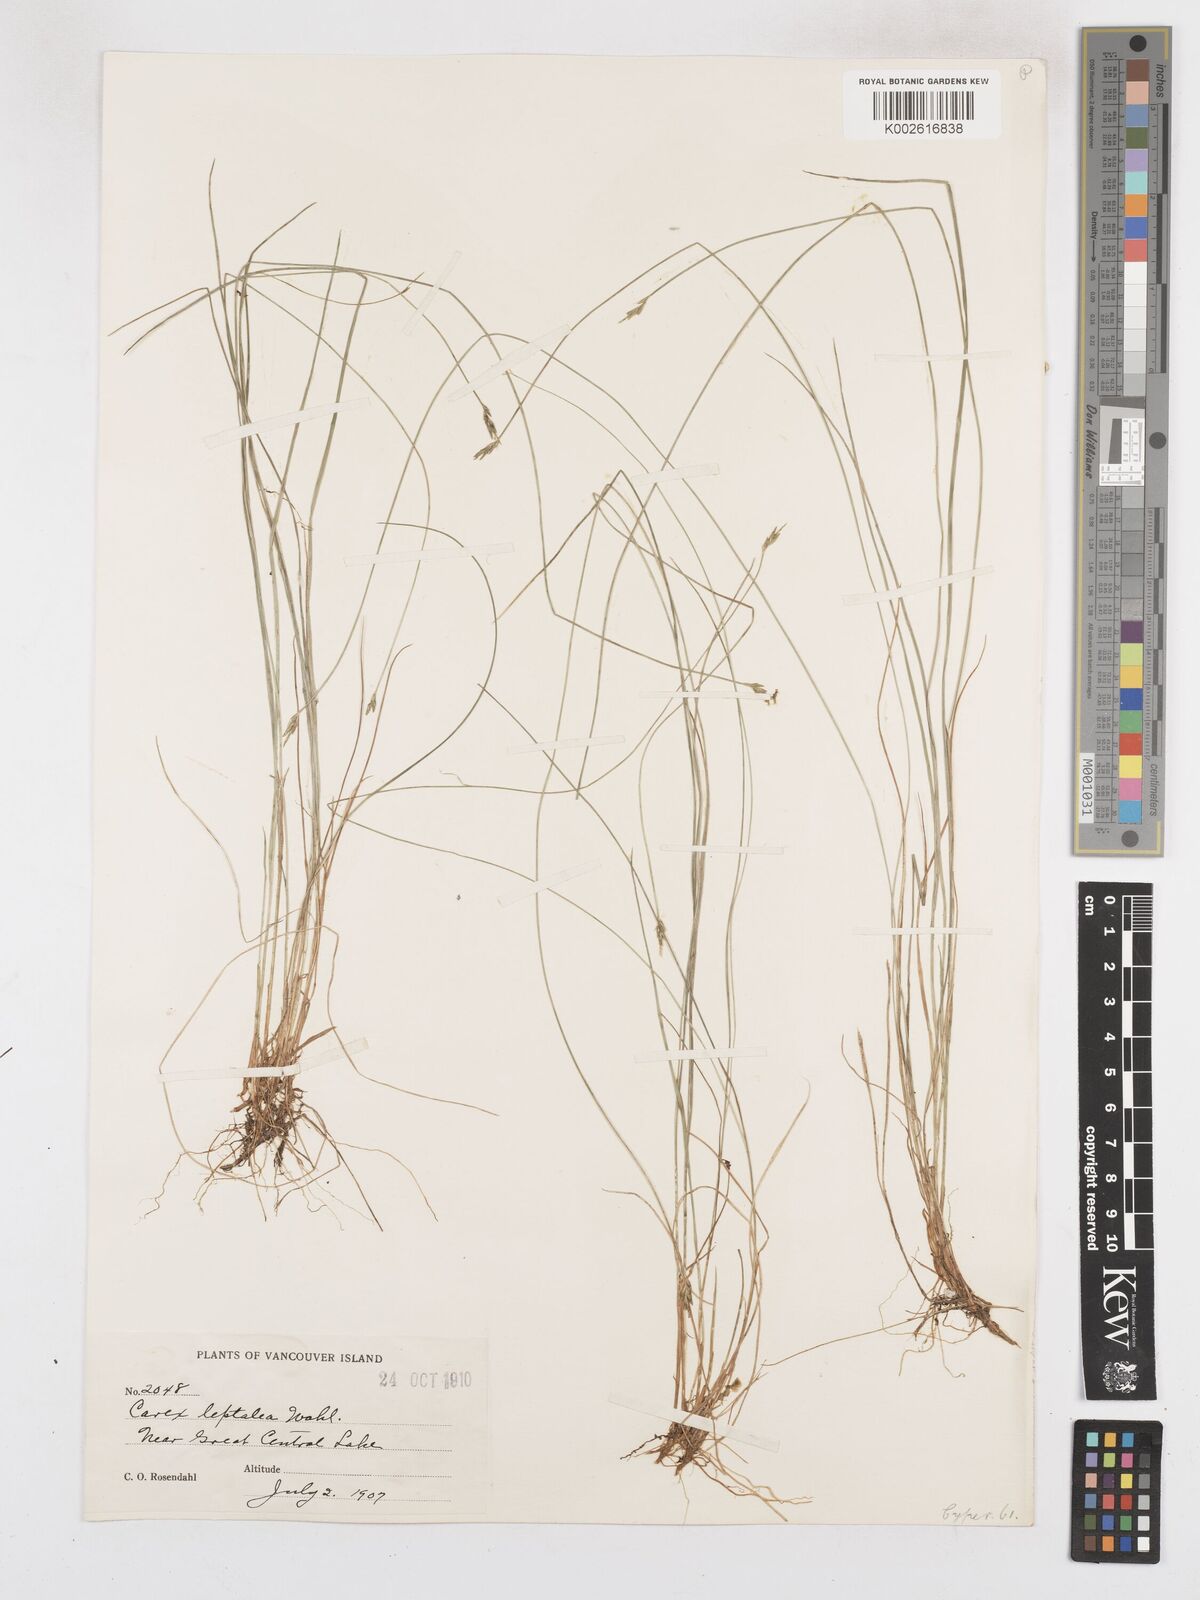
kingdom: Plantae
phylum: Tracheophyta
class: Liliopsida
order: Poales
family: Cyperaceae
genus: Carex
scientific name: Carex leptalea
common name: Bristly-stalked sedge
